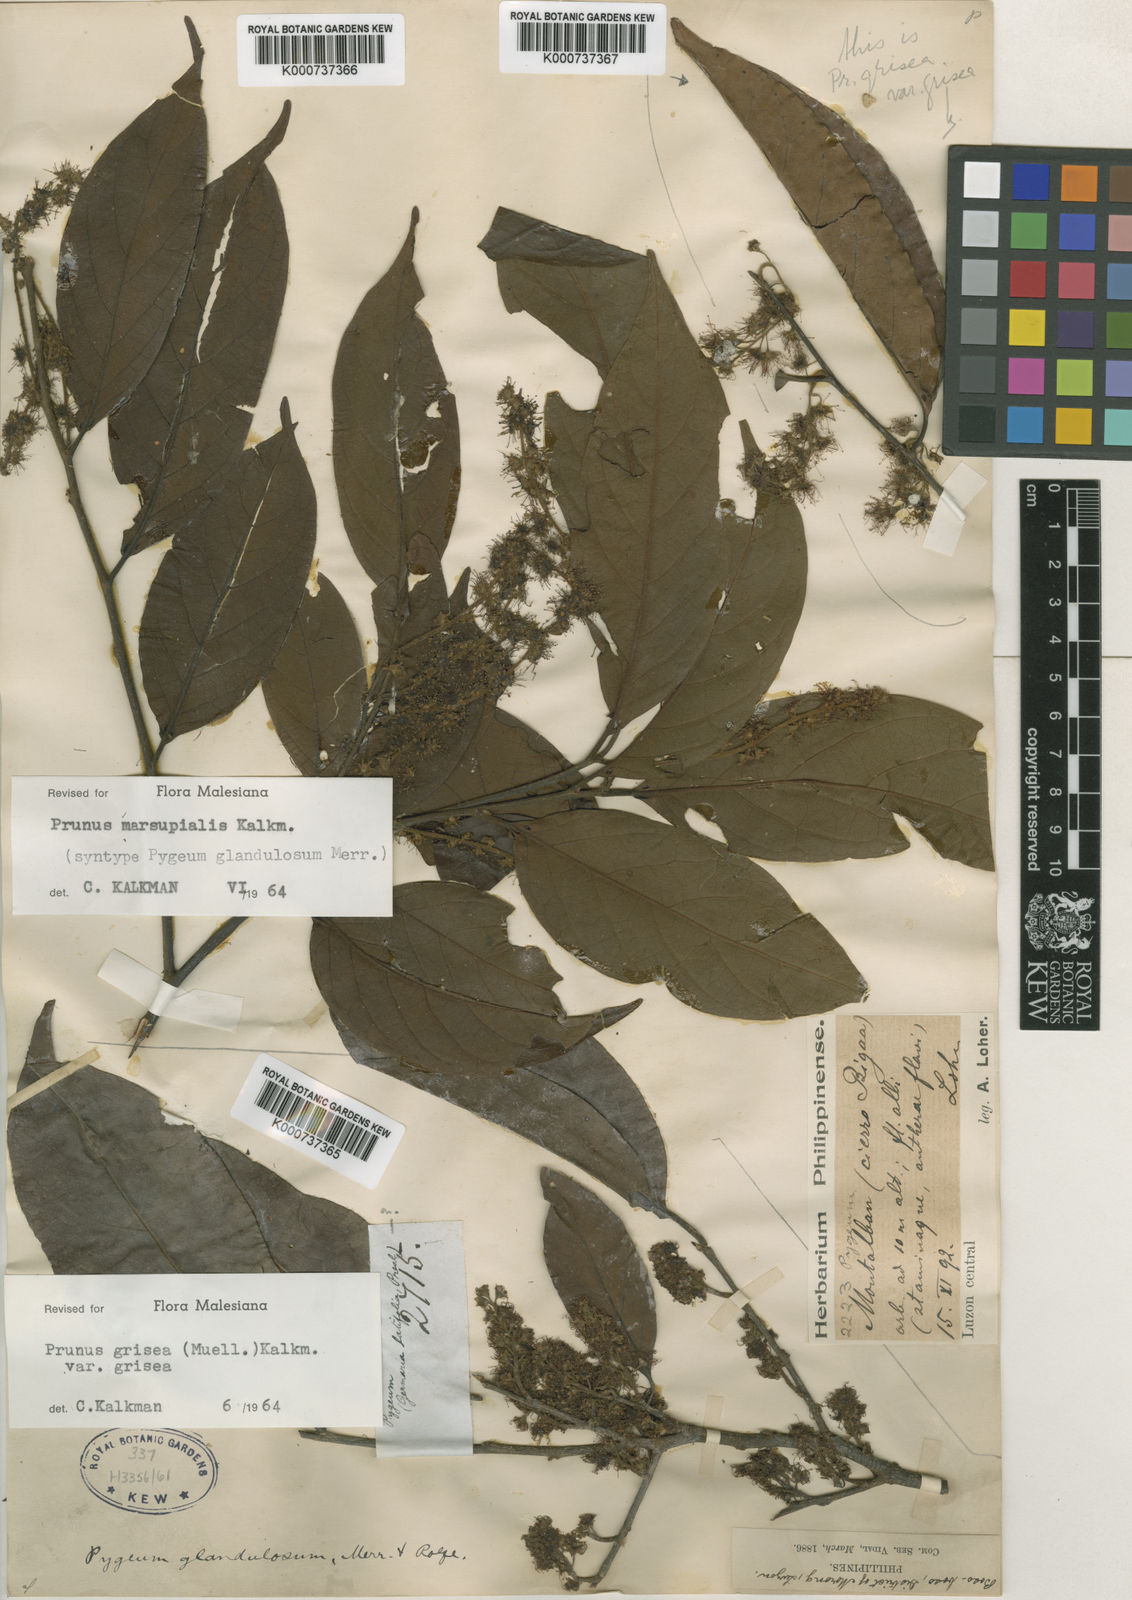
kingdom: Plantae
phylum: Tracheophyta
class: Magnoliopsida
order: Rosales
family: Rosaceae
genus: Prunus
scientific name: Prunus
